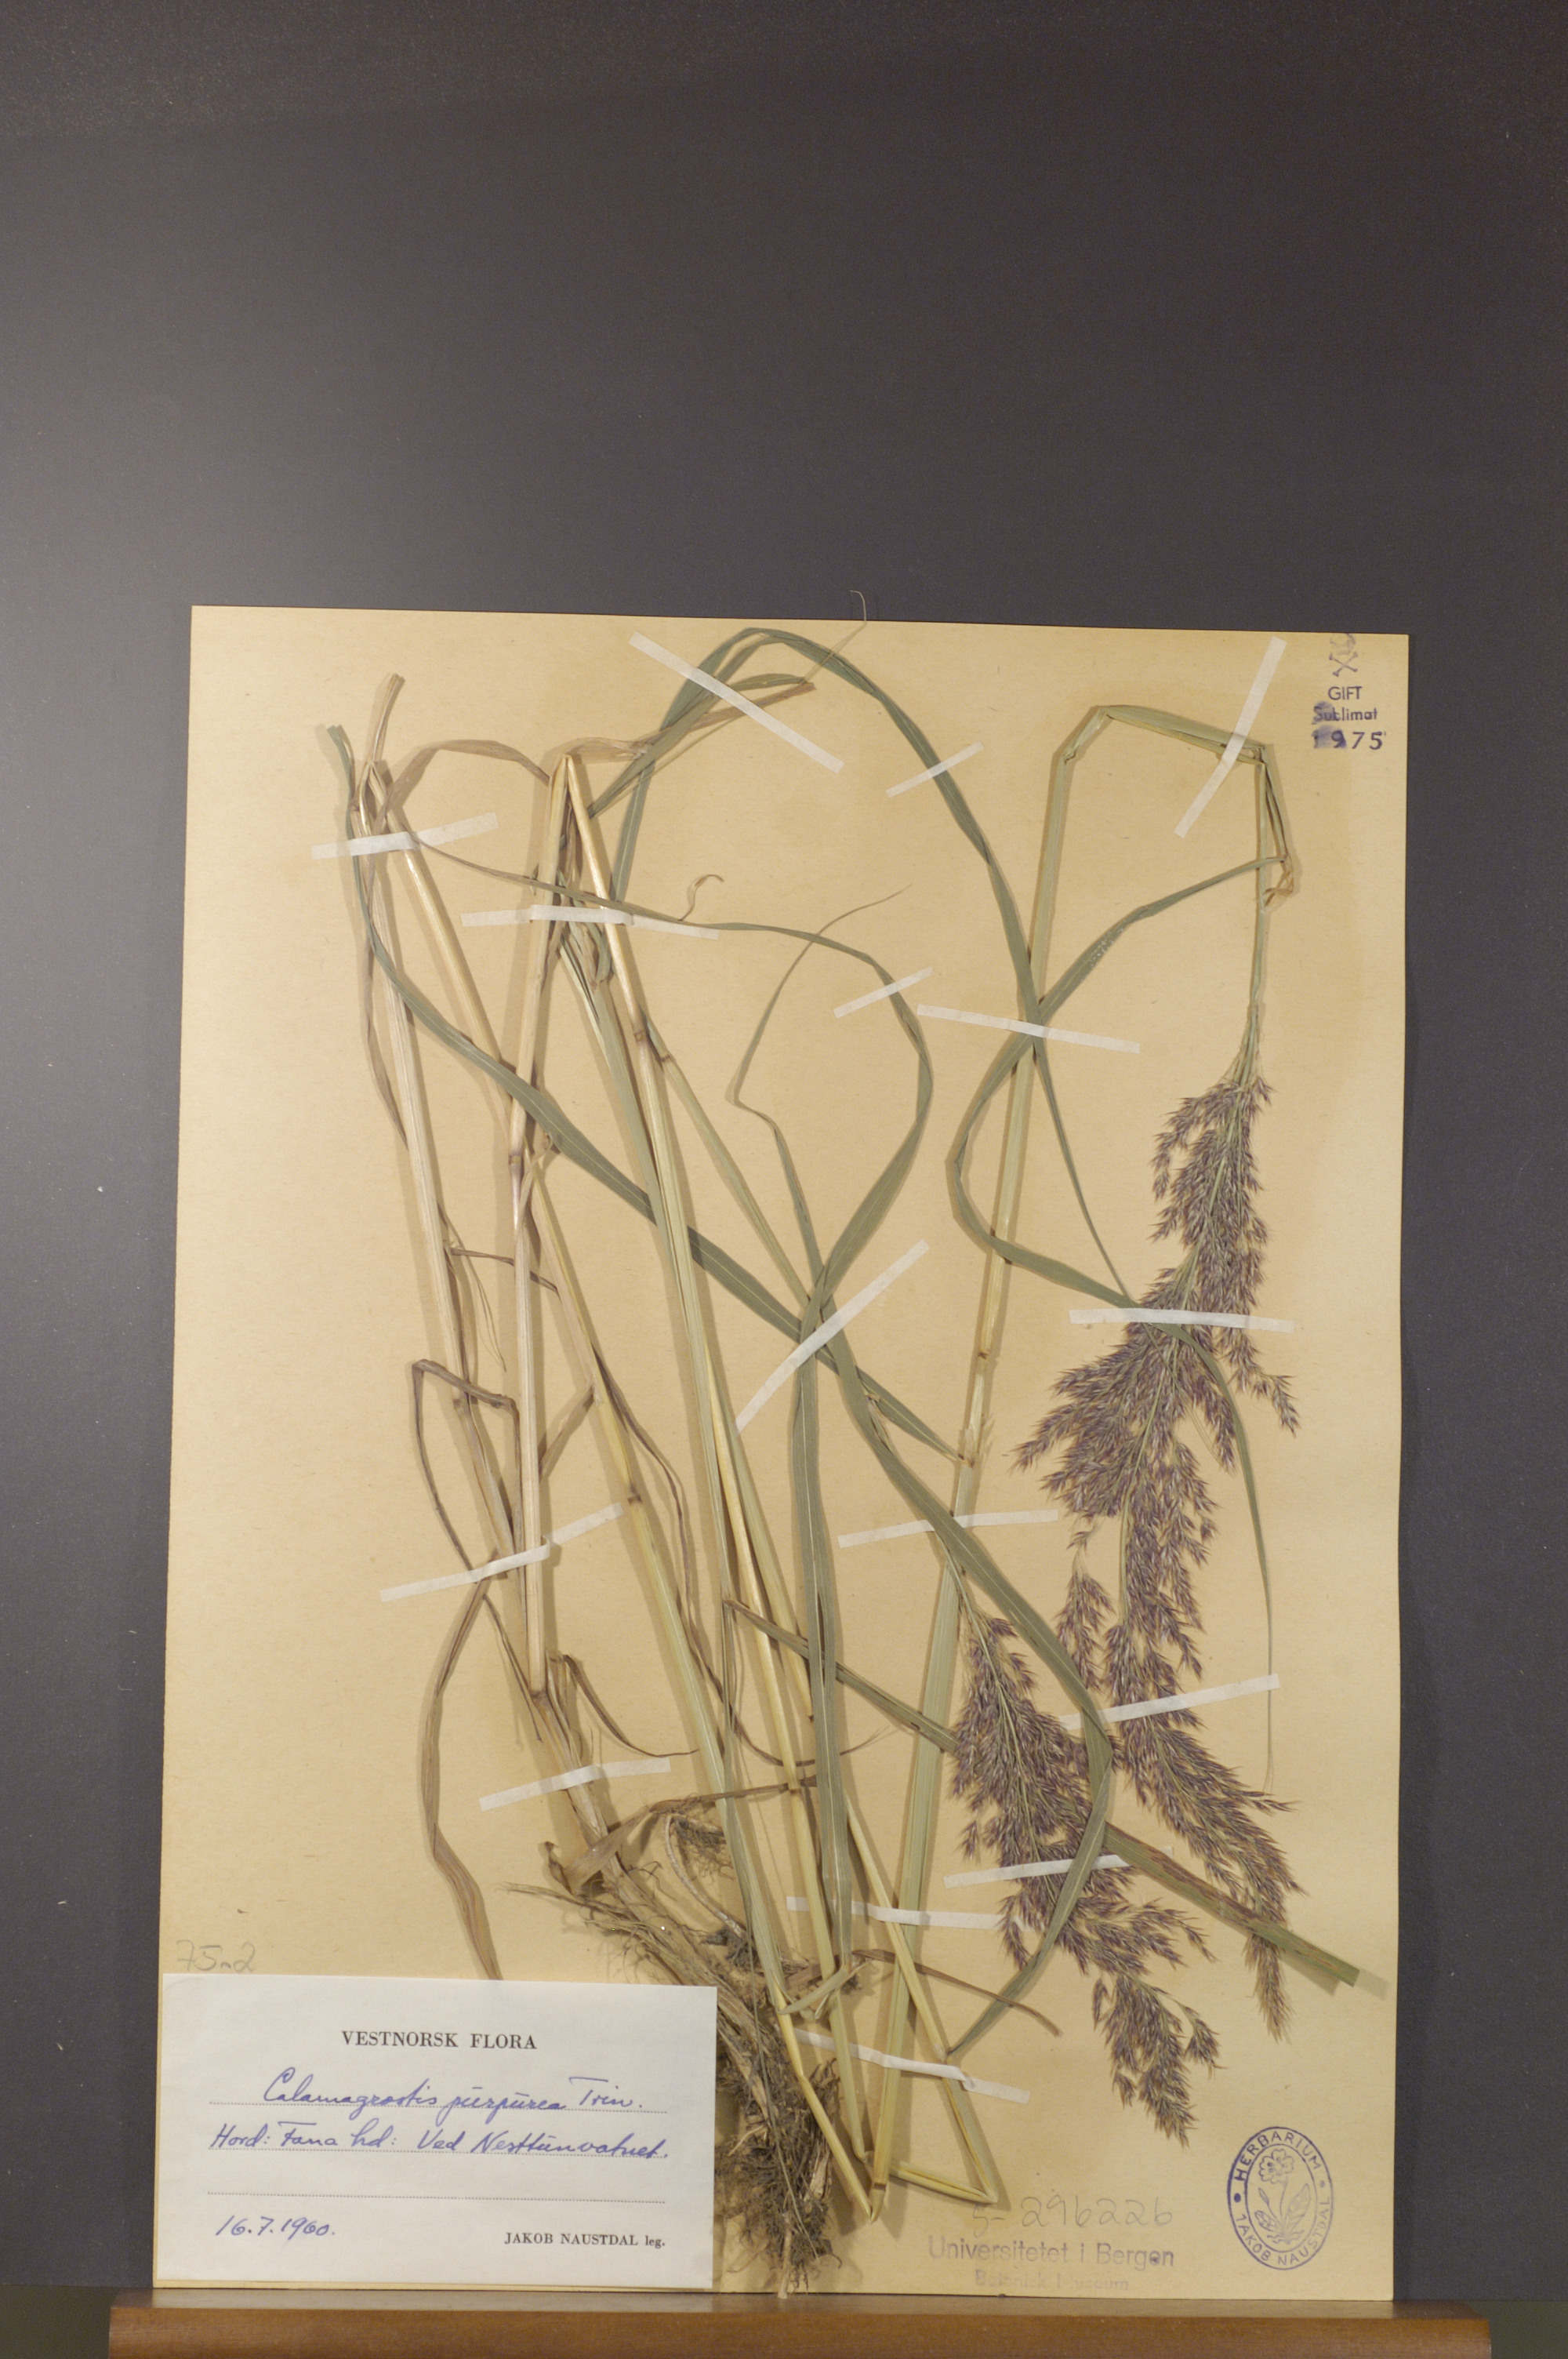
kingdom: Plantae
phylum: Tracheophyta
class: Liliopsida
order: Poales
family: Poaceae
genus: Calamagrostis
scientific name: Calamagrostis purpurea
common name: Scandinavian small-reed
